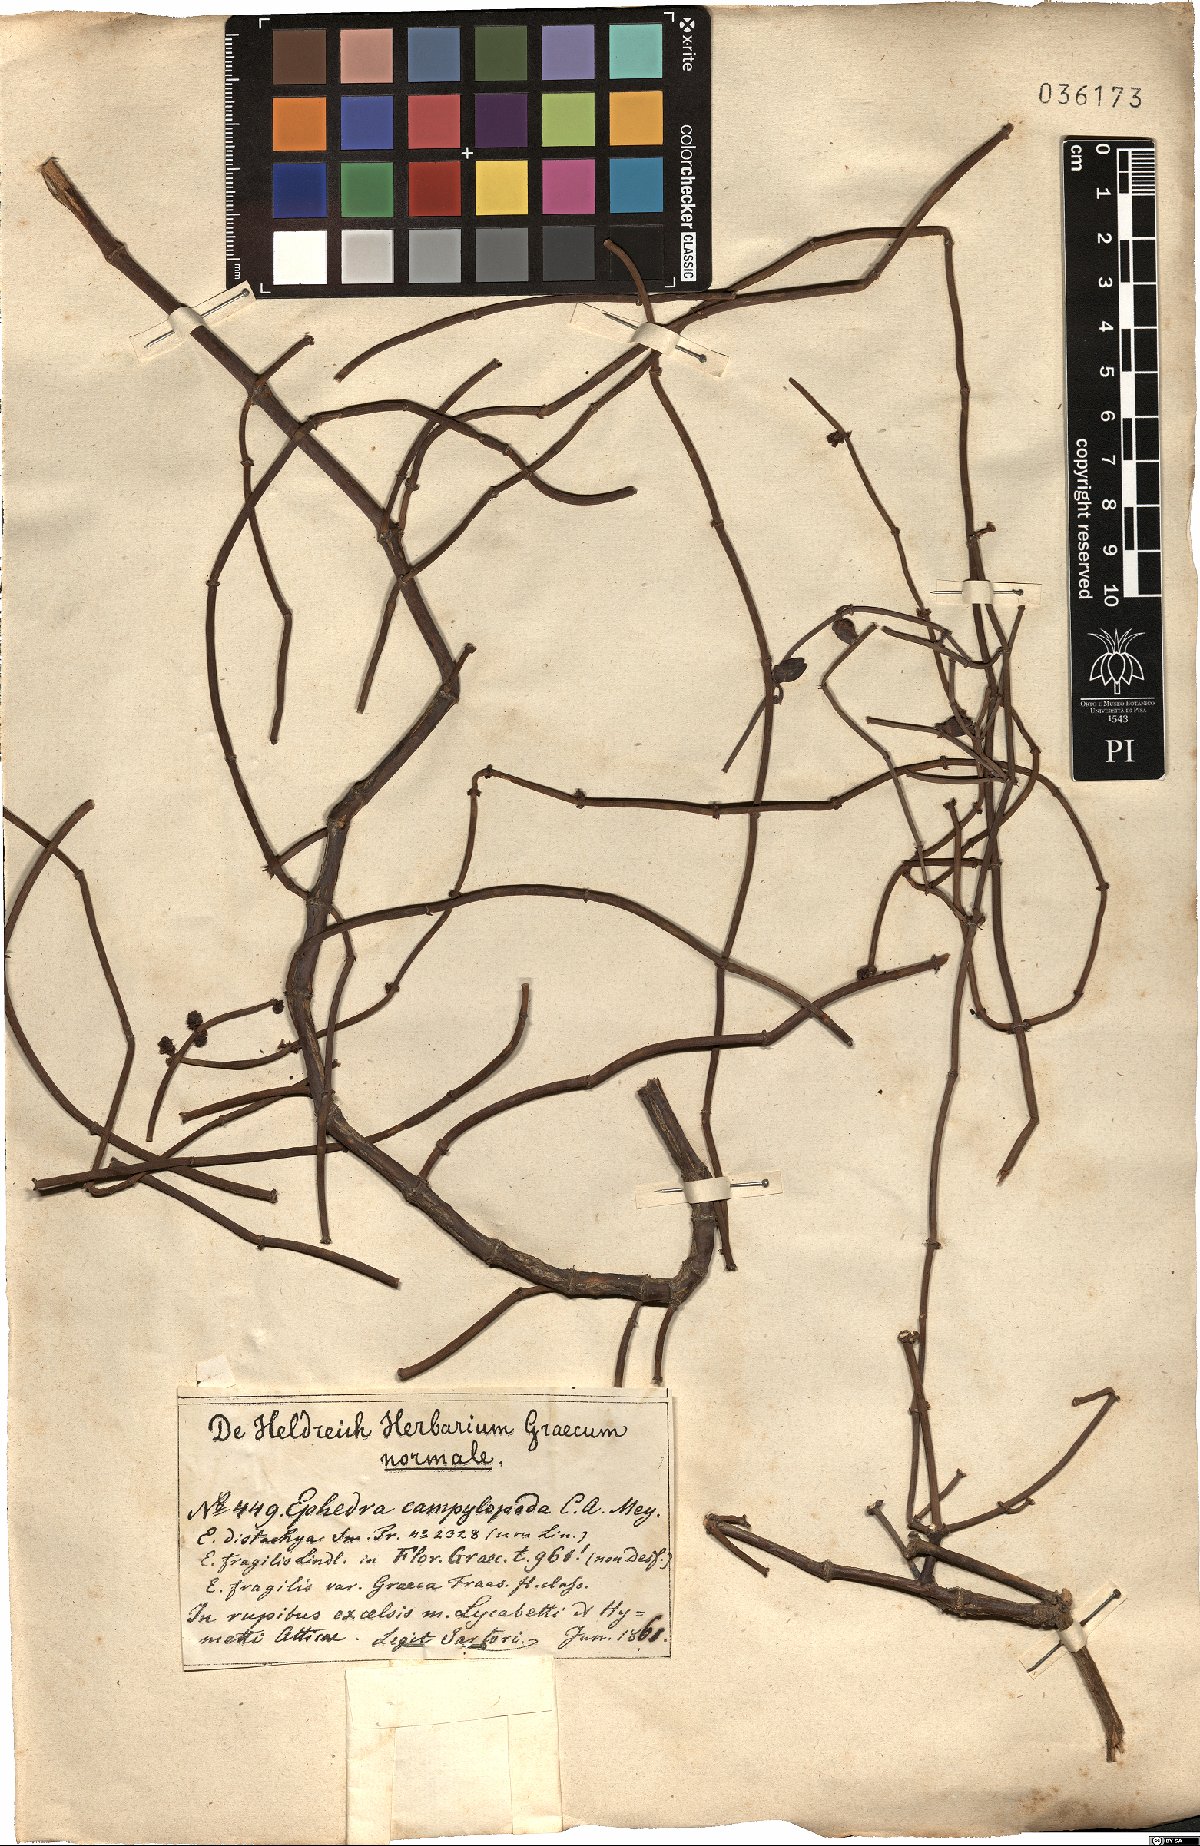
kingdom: Plantae
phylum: Tracheophyta
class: Gnetopsida
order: Ephedrales
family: Ephedraceae
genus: Ephedra
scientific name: Ephedra foeminea
